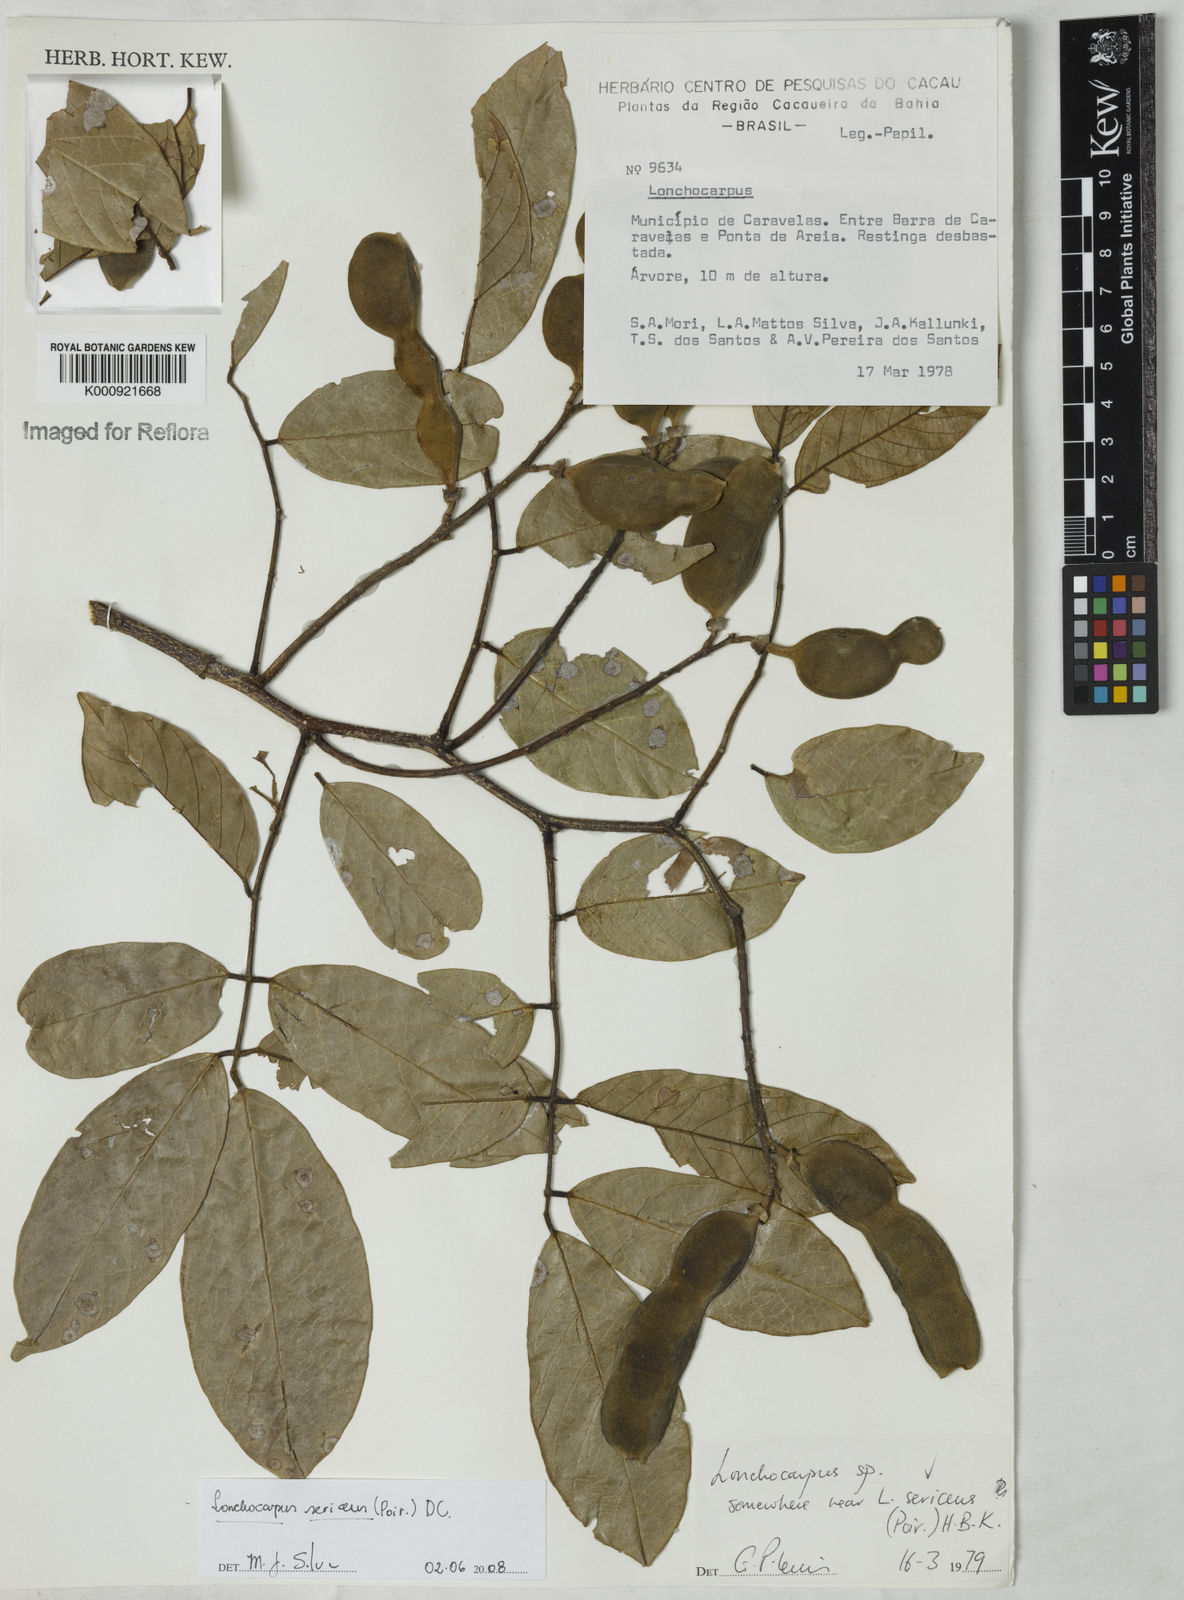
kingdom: Plantae
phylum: Tracheophyta
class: Magnoliopsida
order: Fabales
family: Fabaceae
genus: Lonchocarpus
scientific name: Lonchocarpus sericeus
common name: Savonette
